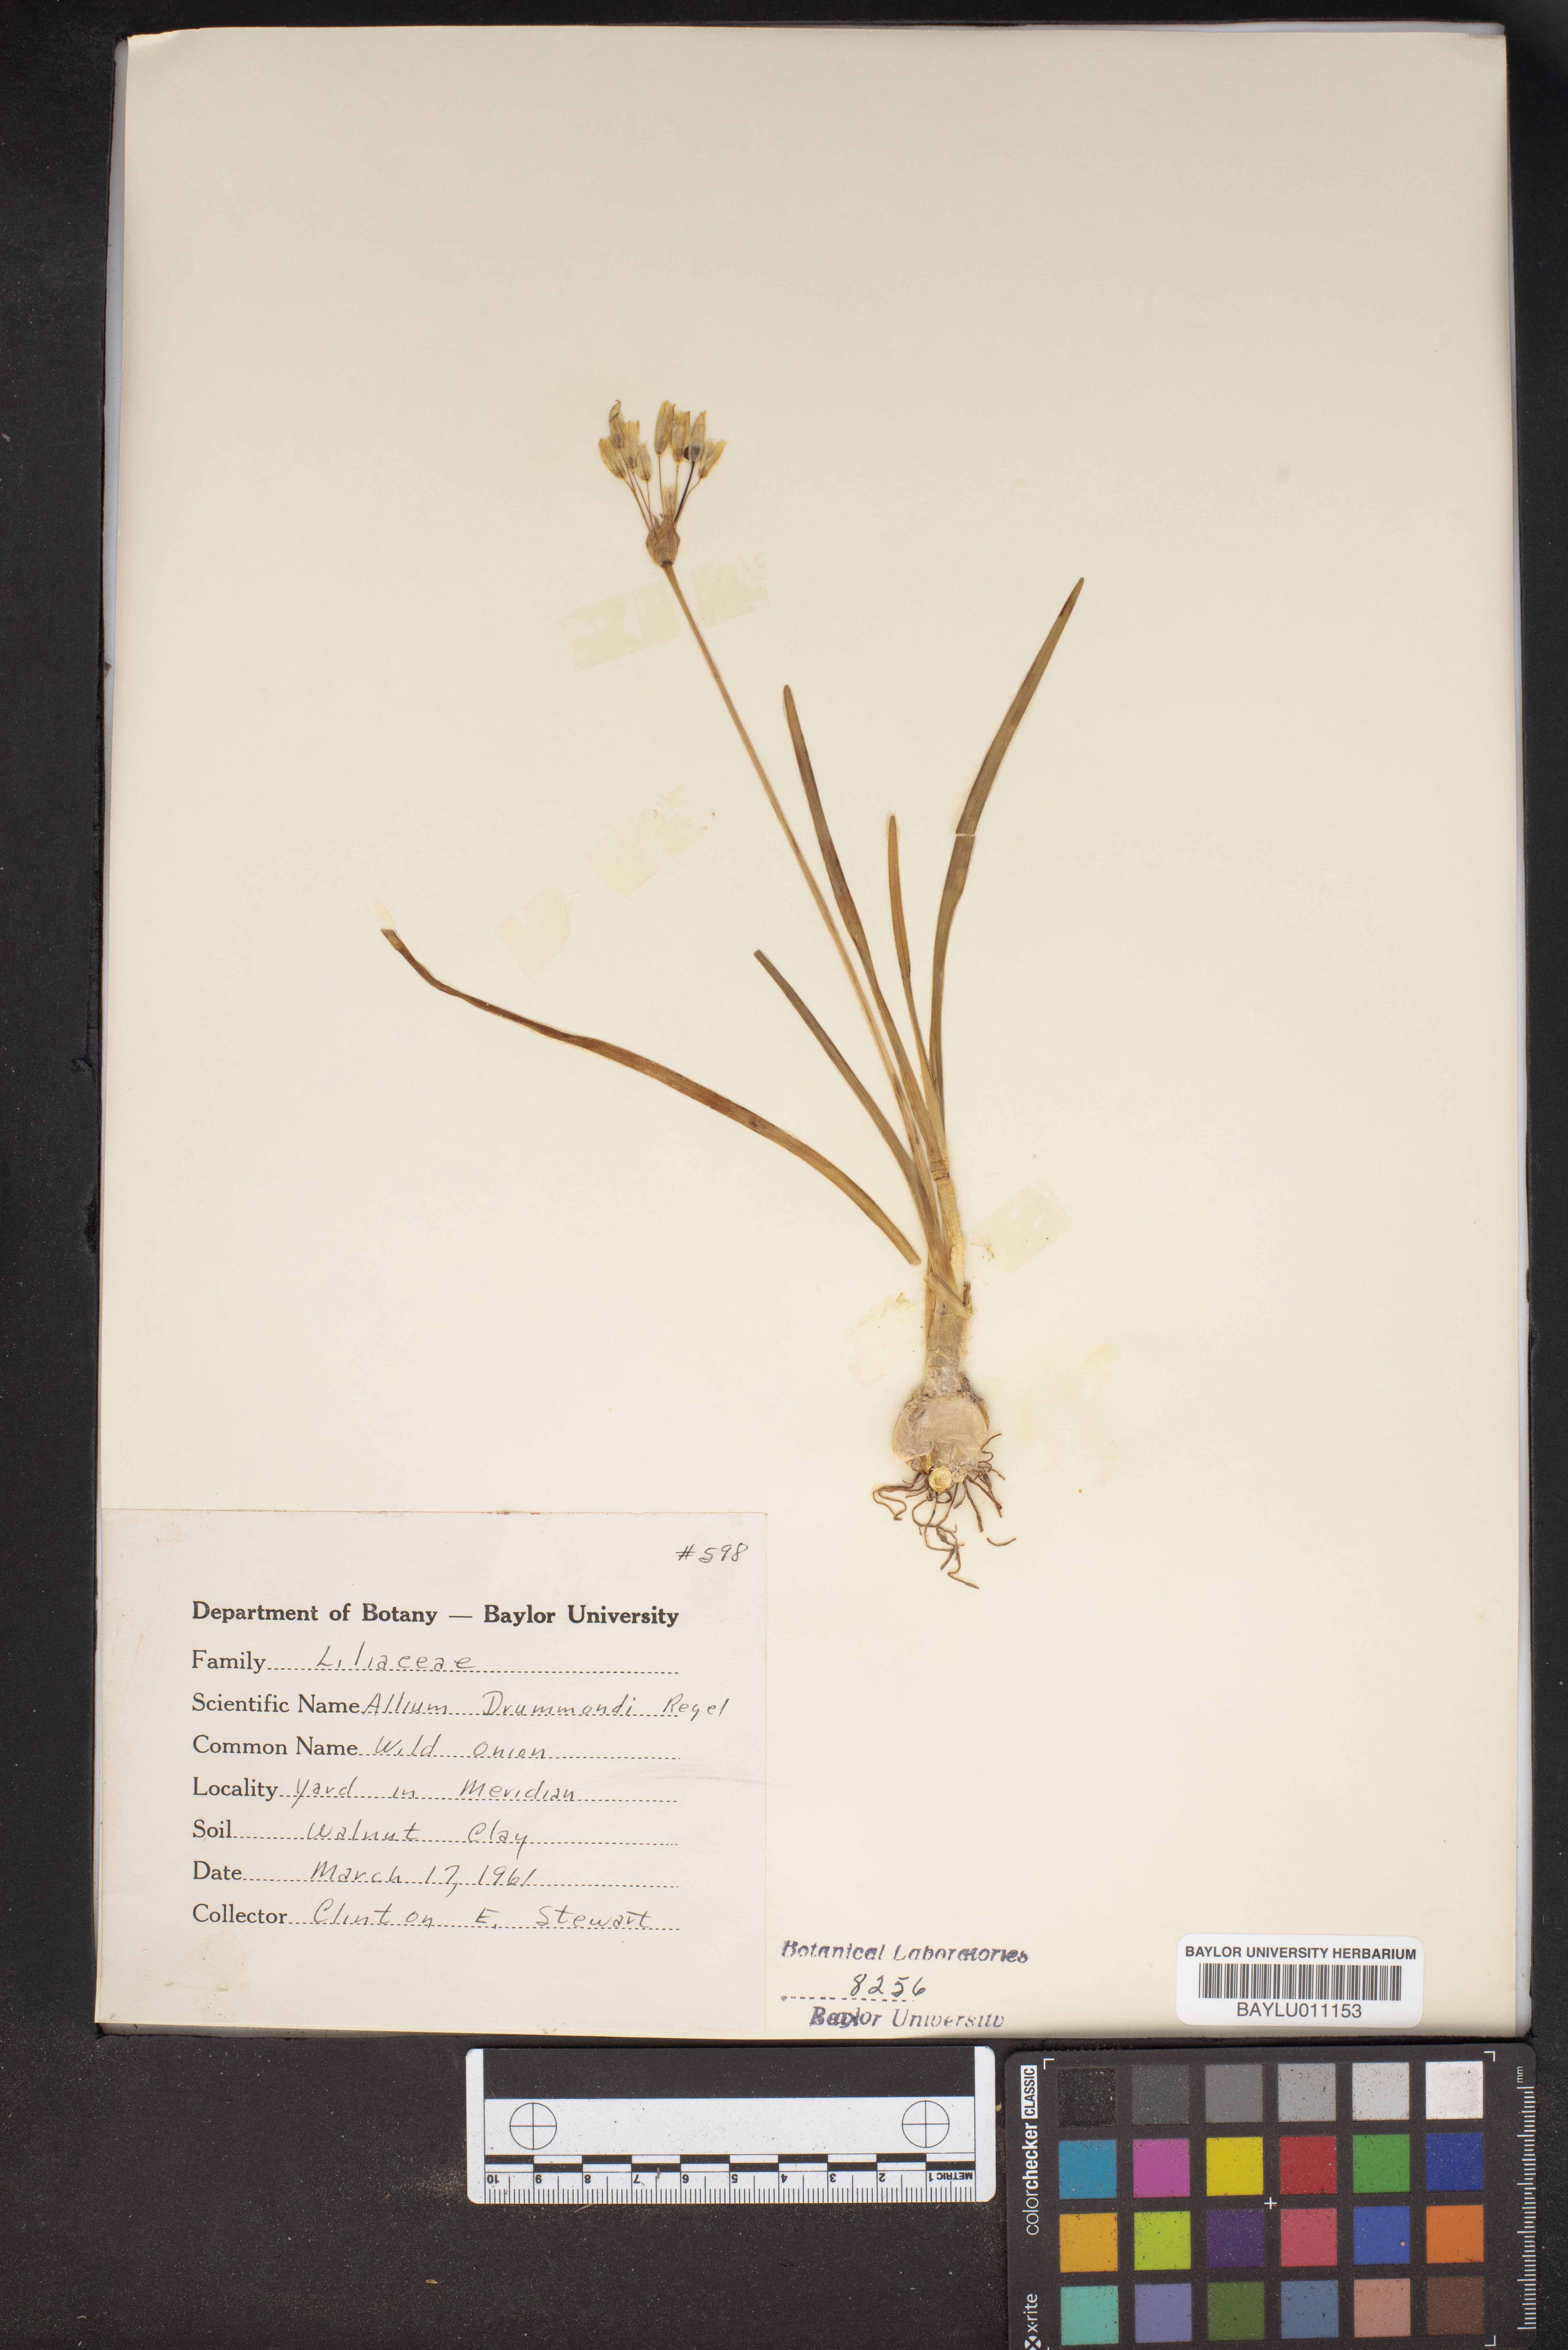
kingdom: Plantae
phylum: Tracheophyta
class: Liliopsida
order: Asparagales
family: Amaryllidaceae
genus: Allium
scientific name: Allium drummondii
